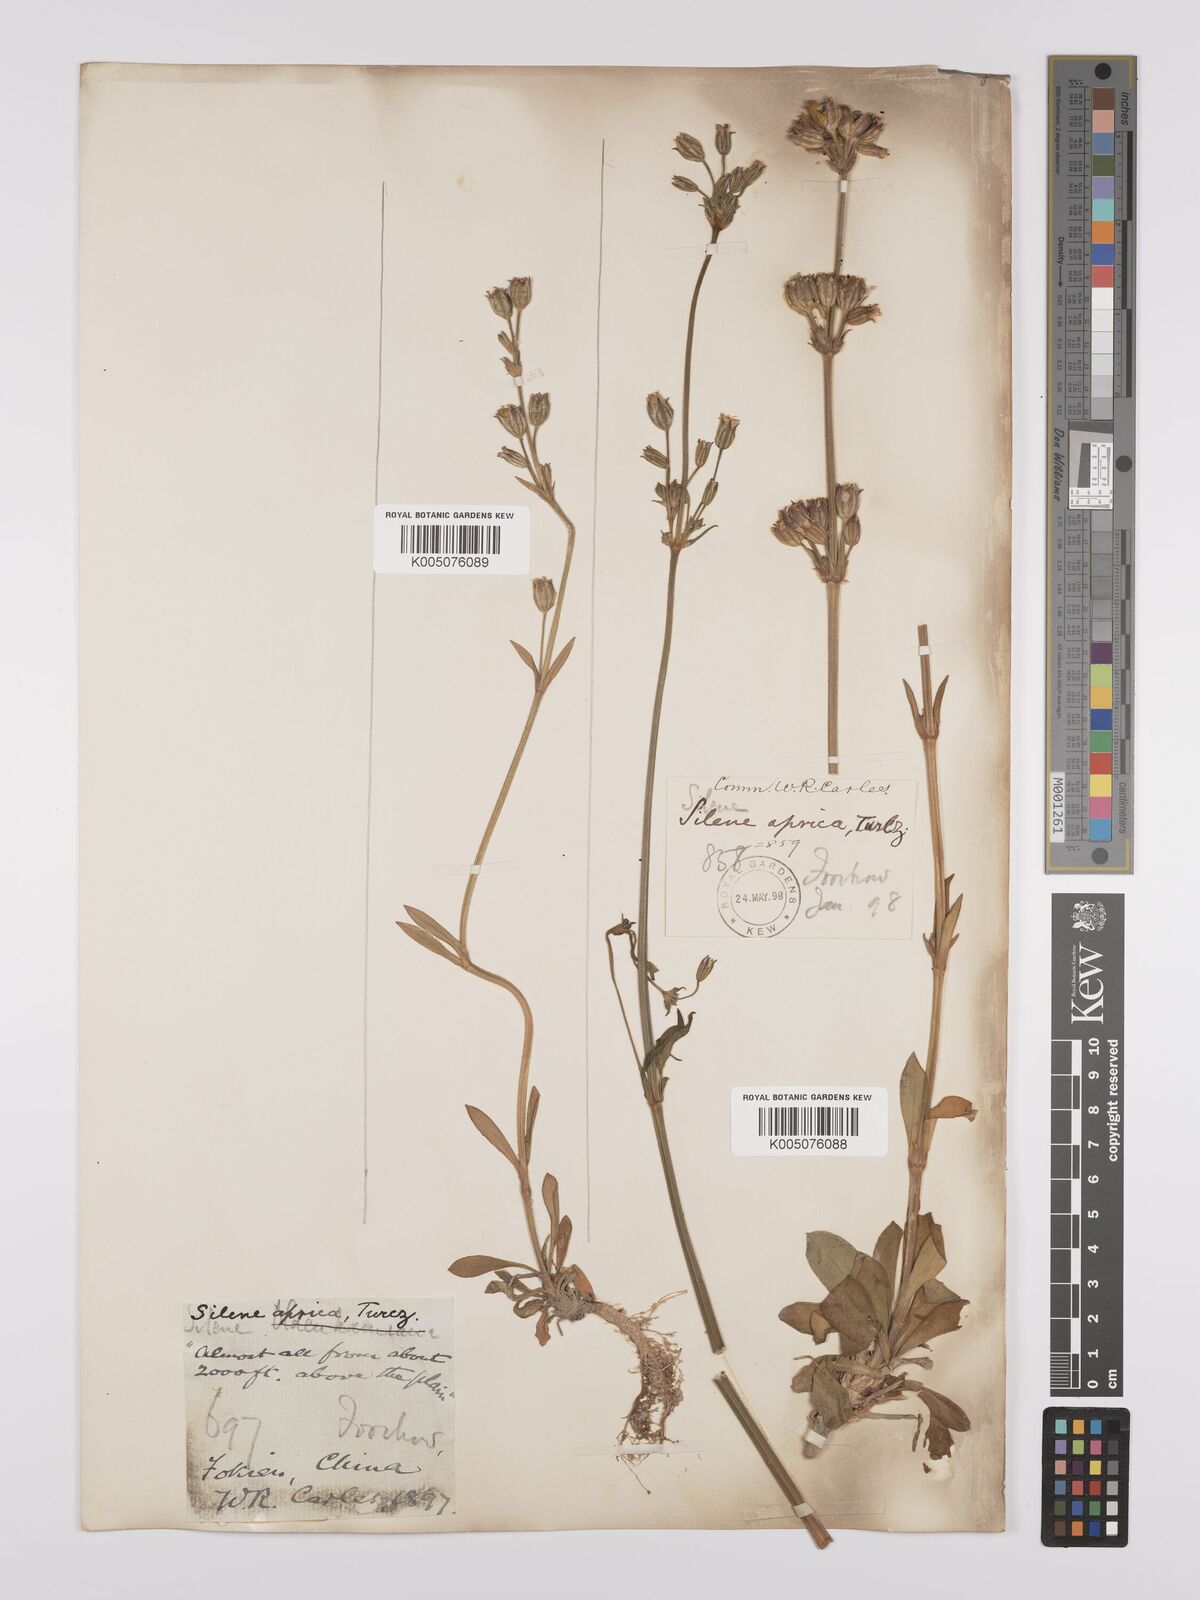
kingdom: Plantae
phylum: Tracheophyta
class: Magnoliopsida
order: Caryophyllales
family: Caryophyllaceae
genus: Silene
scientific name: Silene aprica
